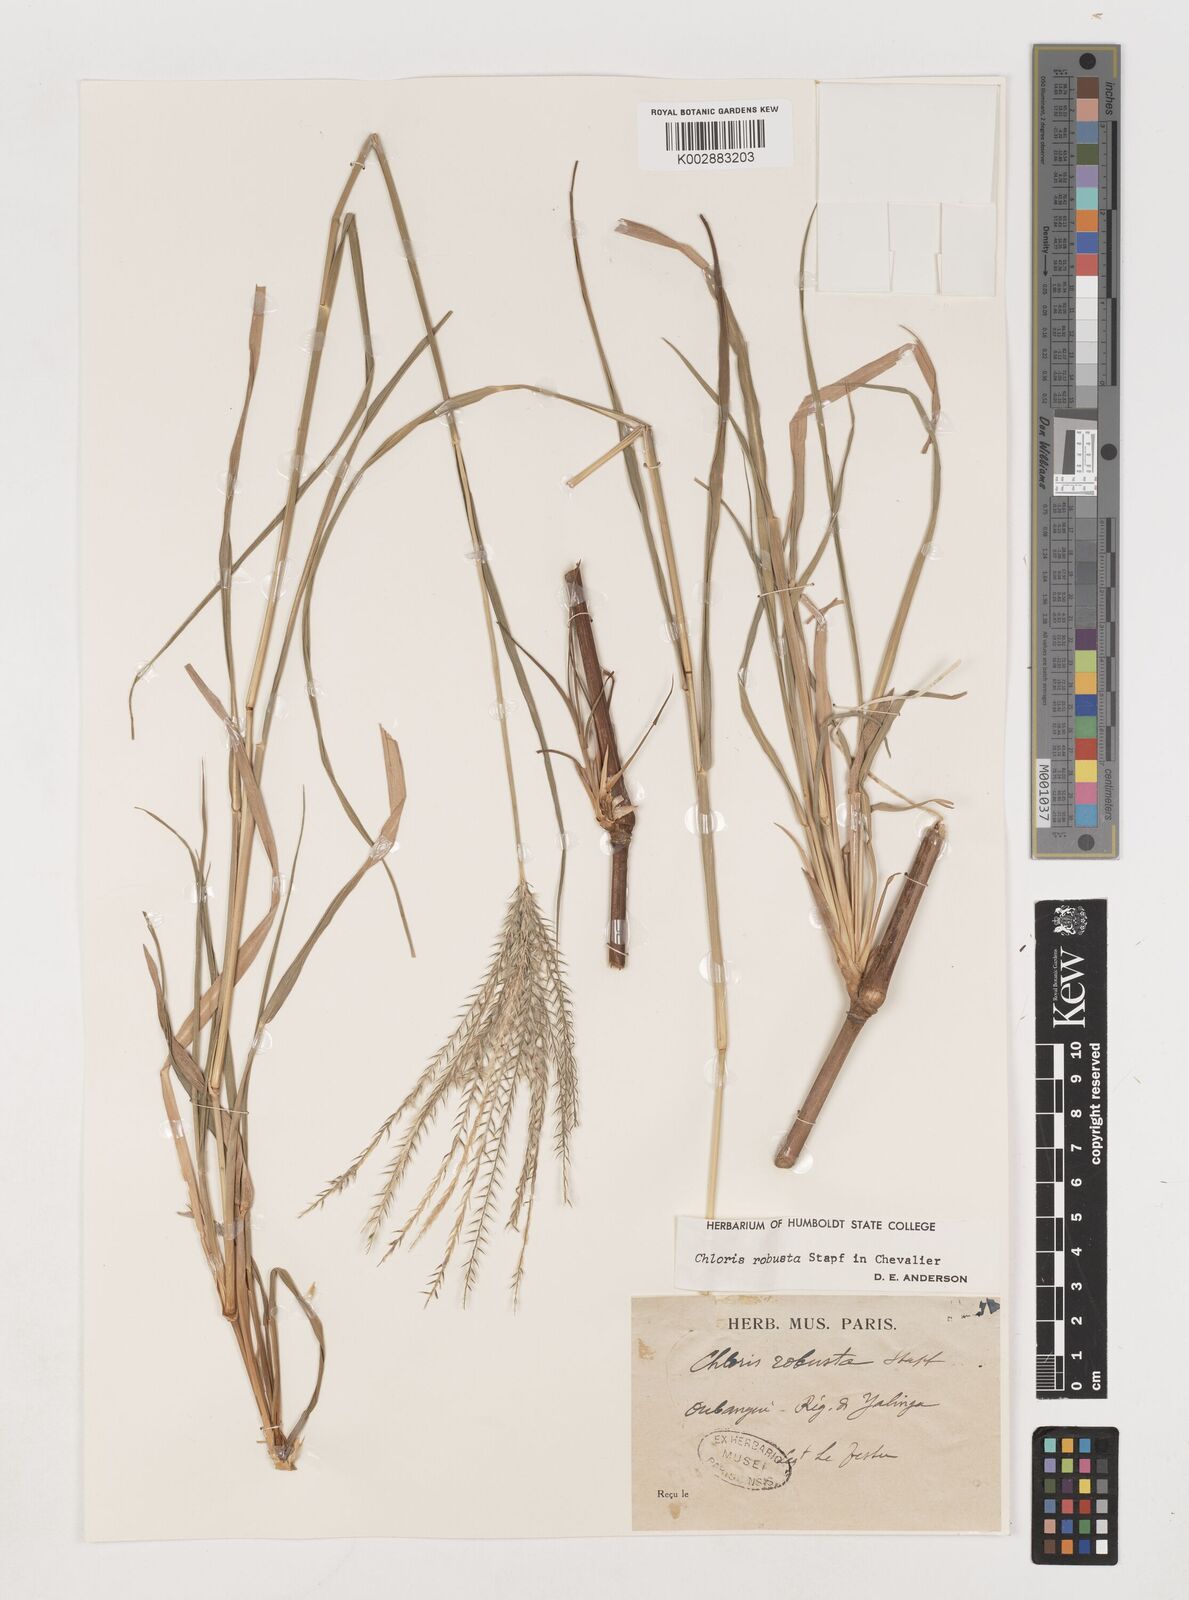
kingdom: Plantae
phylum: Tracheophyta
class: Liliopsida
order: Poales
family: Poaceae
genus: Chloris
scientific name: Chloris robusta
